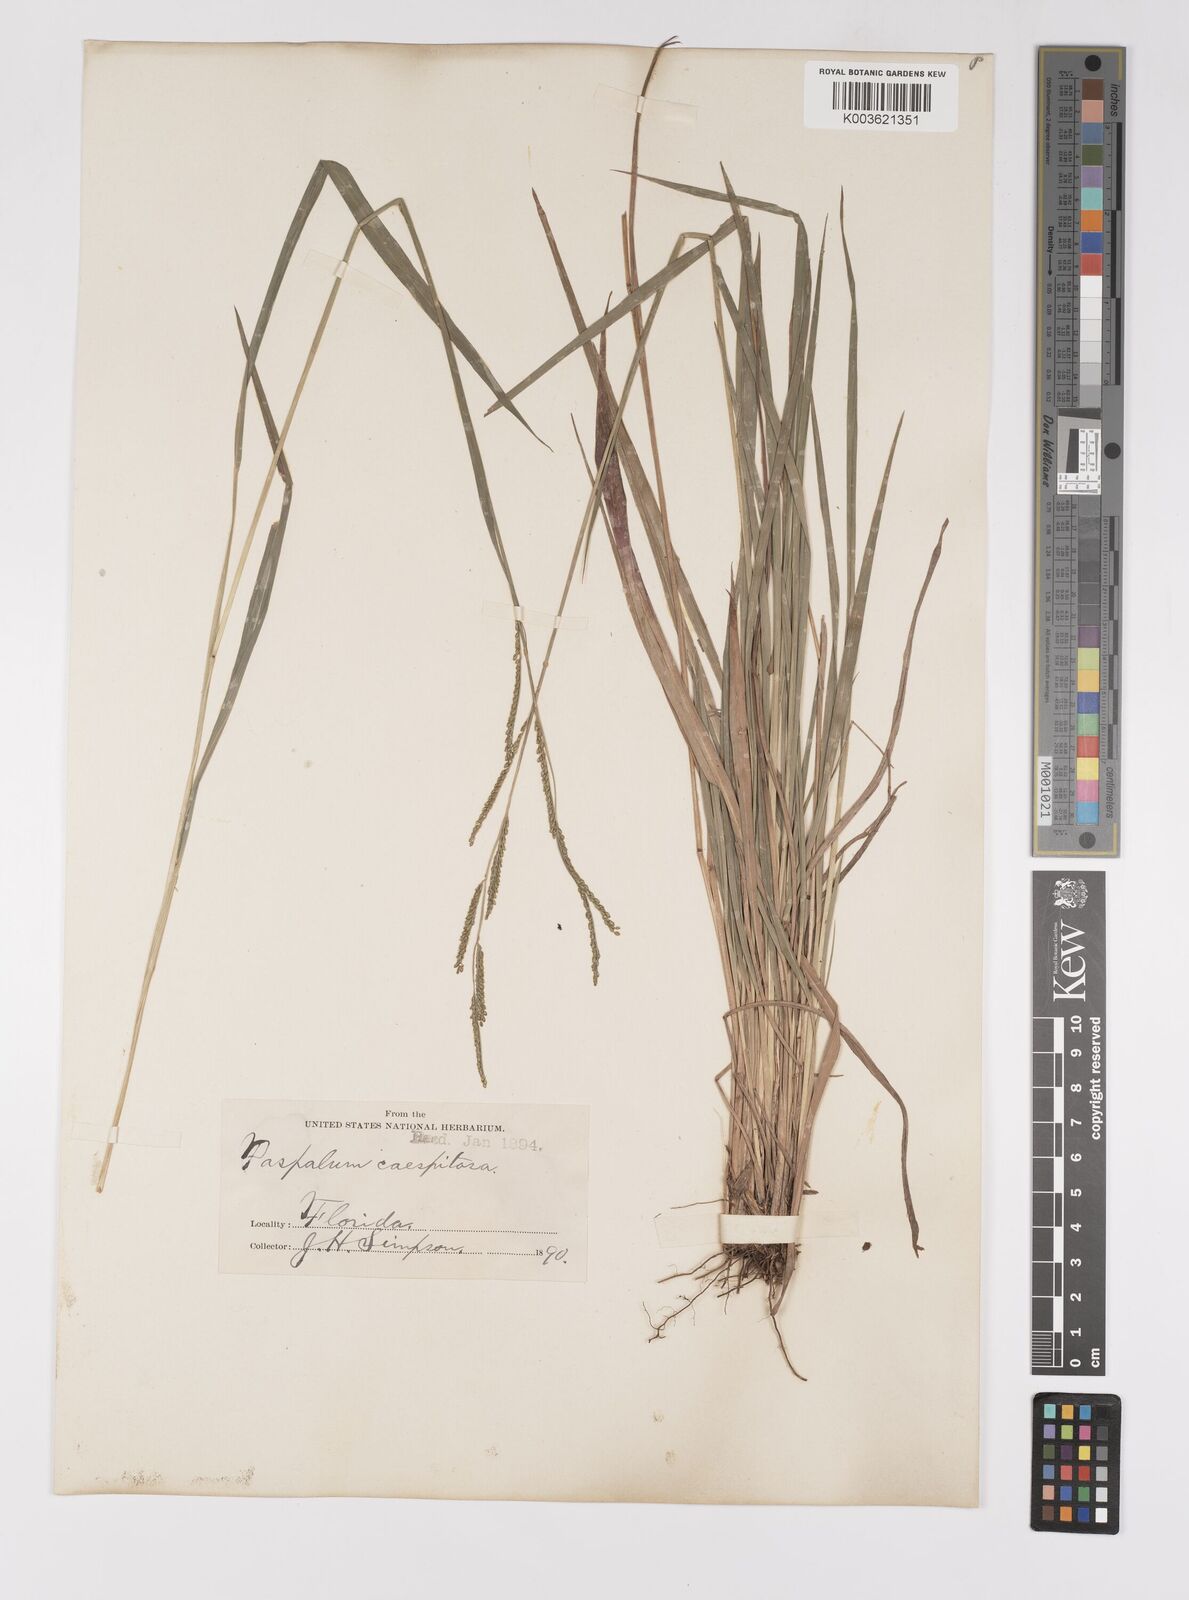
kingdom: Plantae
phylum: Tracheophyta
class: Liliopsida
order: Poales
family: Poaceae
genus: Paspalum
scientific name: Paspalum caespitosum
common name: Blue crowngrass
